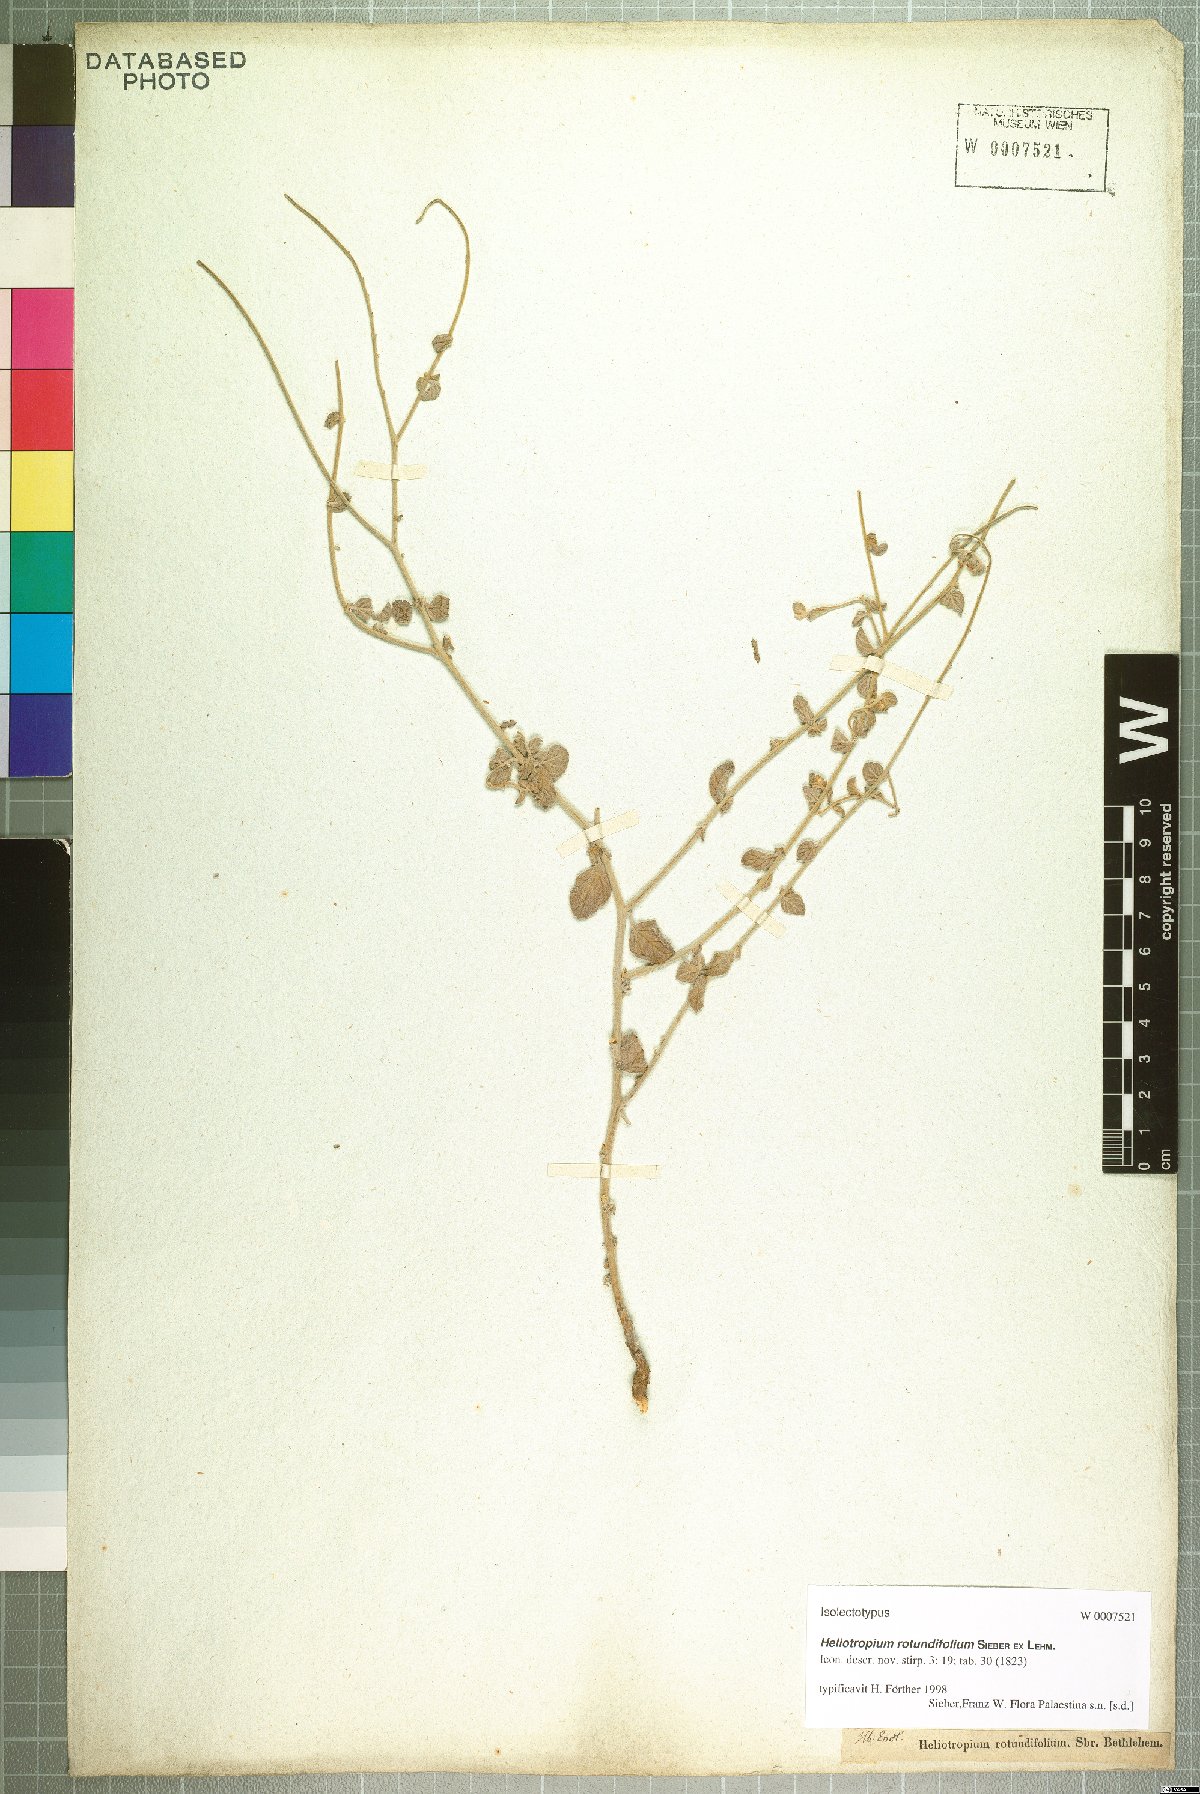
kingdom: Plantae
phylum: Tracheophyta
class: Magnoliopsida
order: Boraginales
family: Heliotropiaceae
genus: Heliotropium
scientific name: Heliotropium rotundifolium
